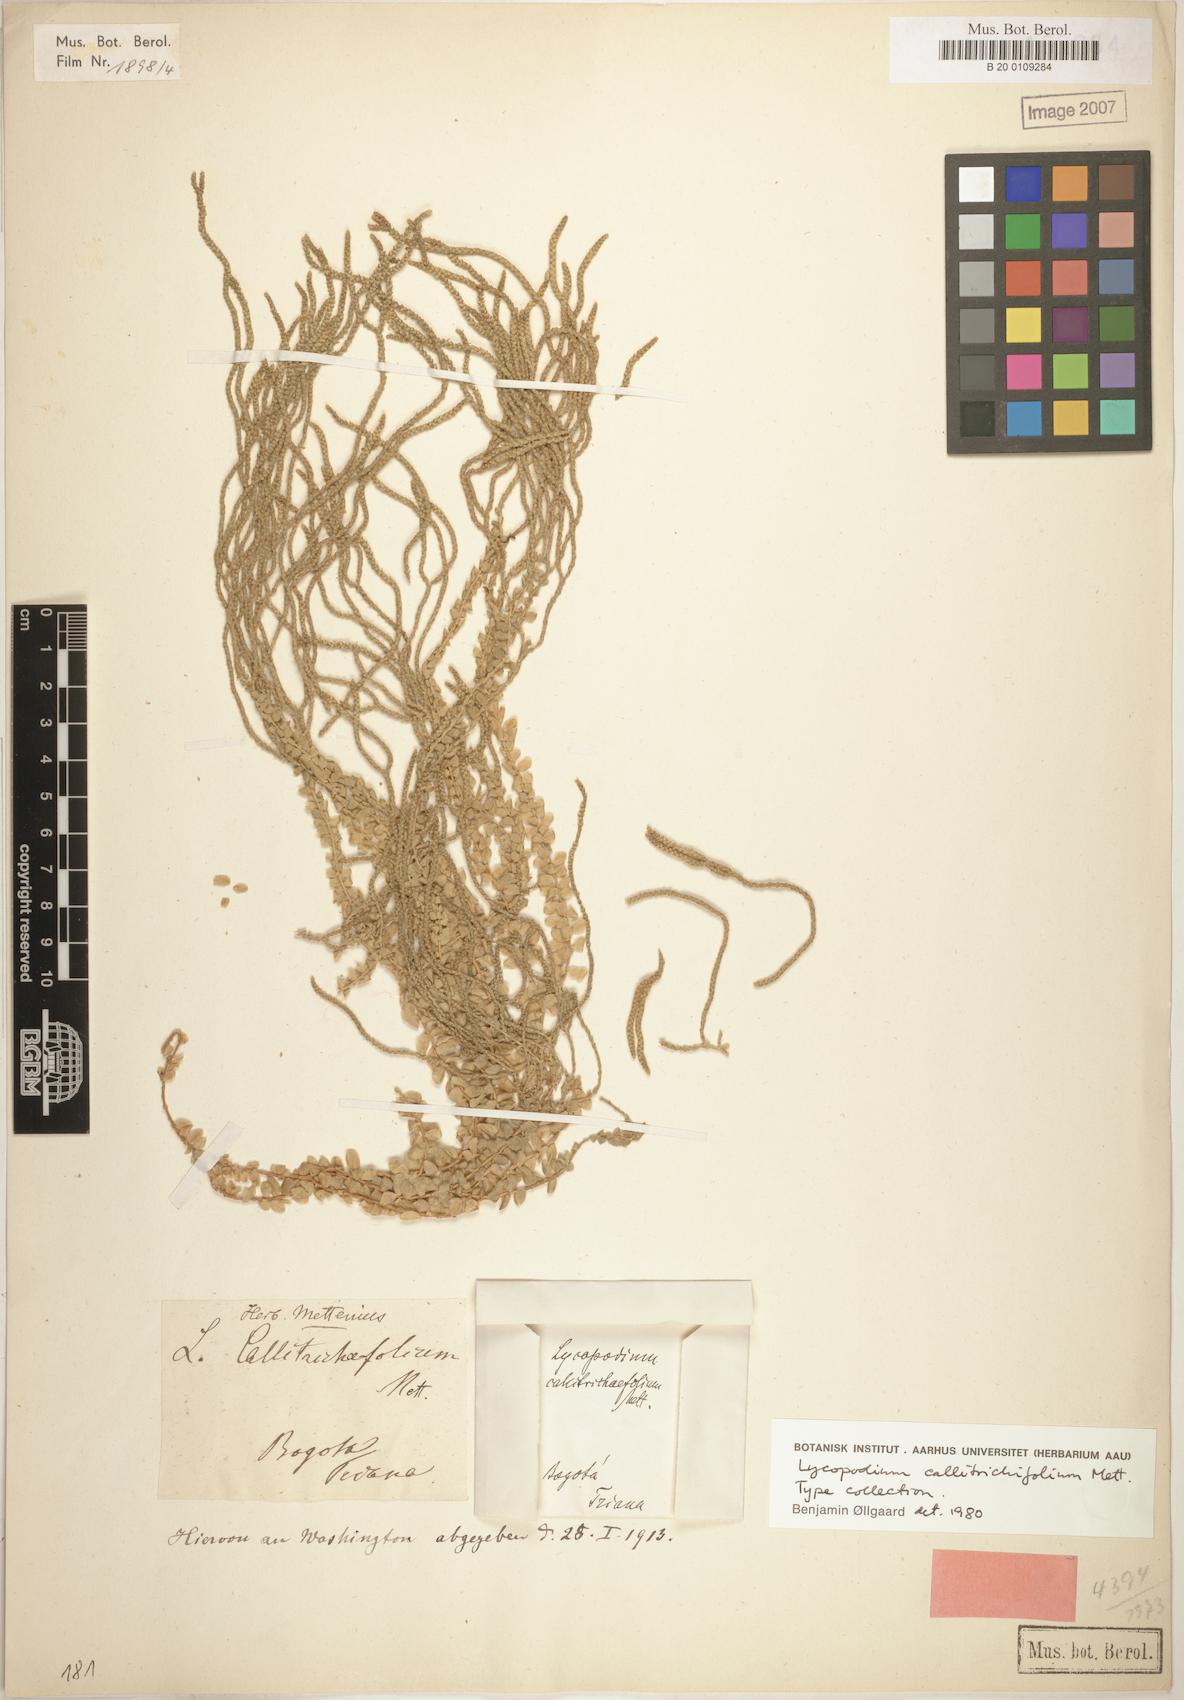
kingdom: Plantae
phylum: Tracheophyta
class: Lycopodiopsida
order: Lycopodiales
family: Lycopodiaceae
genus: Phlegmariurus
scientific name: Phlegmariurus callitrichifolius
